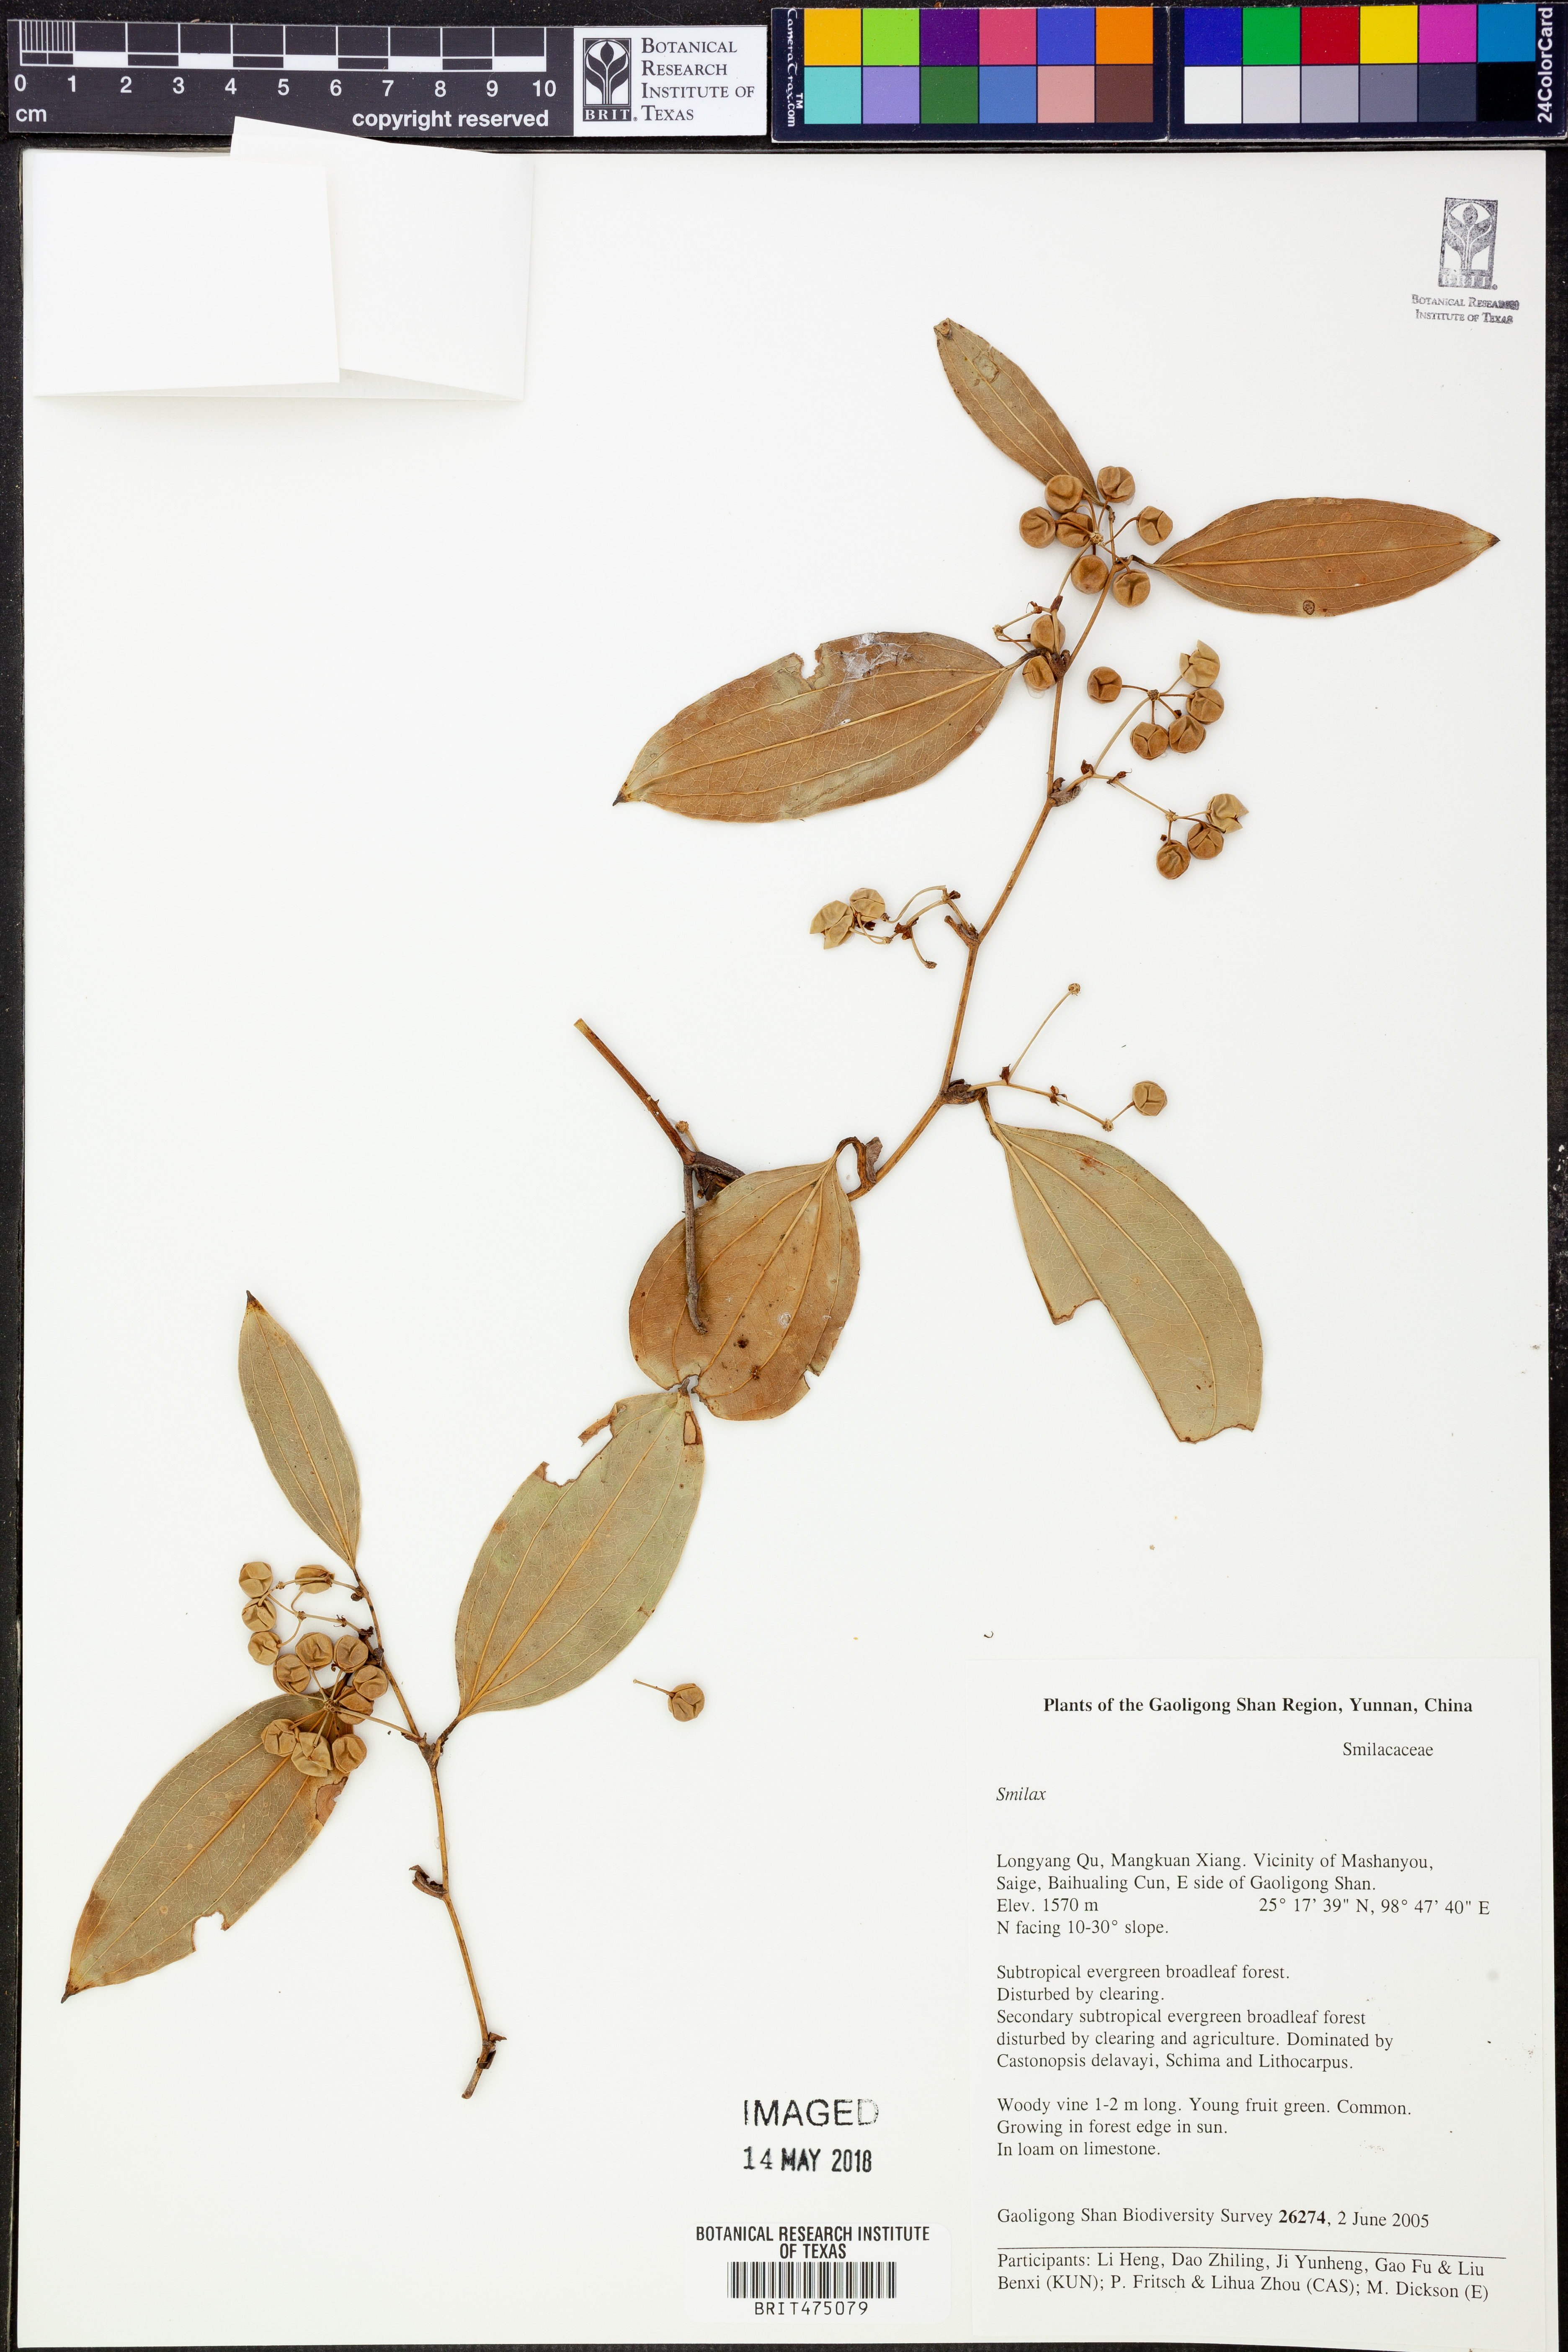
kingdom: Plantae
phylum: Tracheophyta
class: Liliopsida
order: Liliales
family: Smilacaceae
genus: Smilax
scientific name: Smilax
